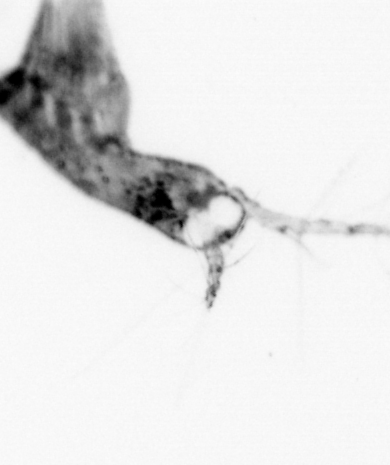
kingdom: Animalia
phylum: Arthropoda
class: Copepoda
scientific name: Copepoda
